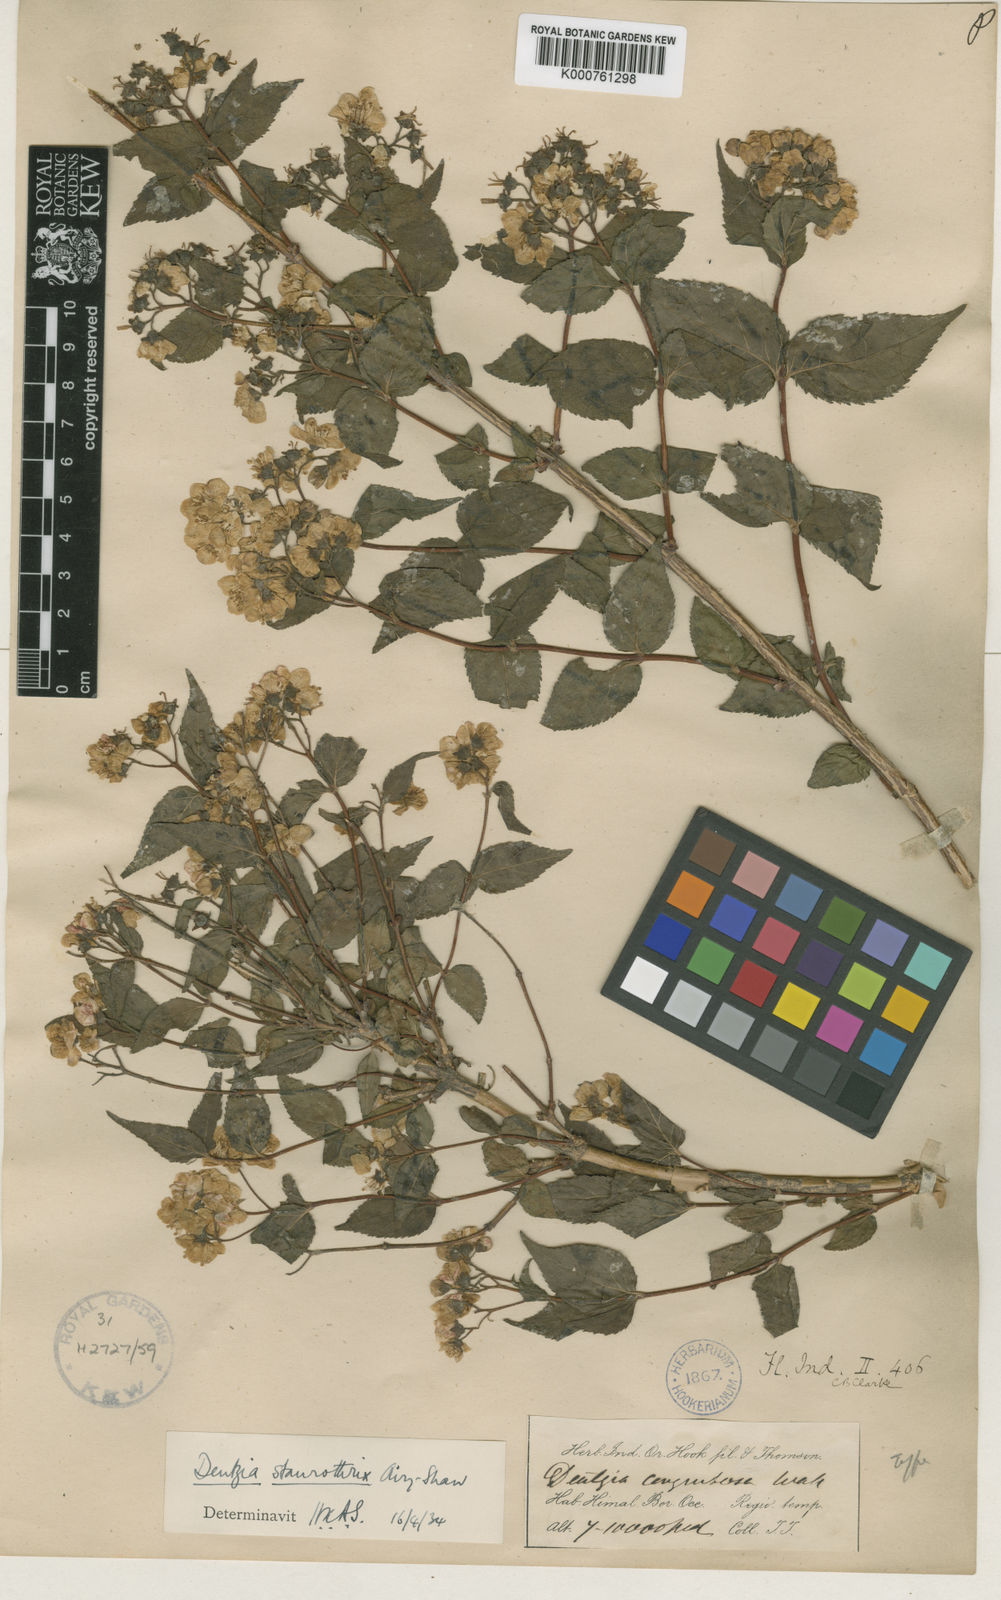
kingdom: Plantae
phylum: Tracheophyta
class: Magnoliopsida
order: Cornales
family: Hydrangeaceae
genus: Deutzia
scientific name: Deutzia hookeriana
